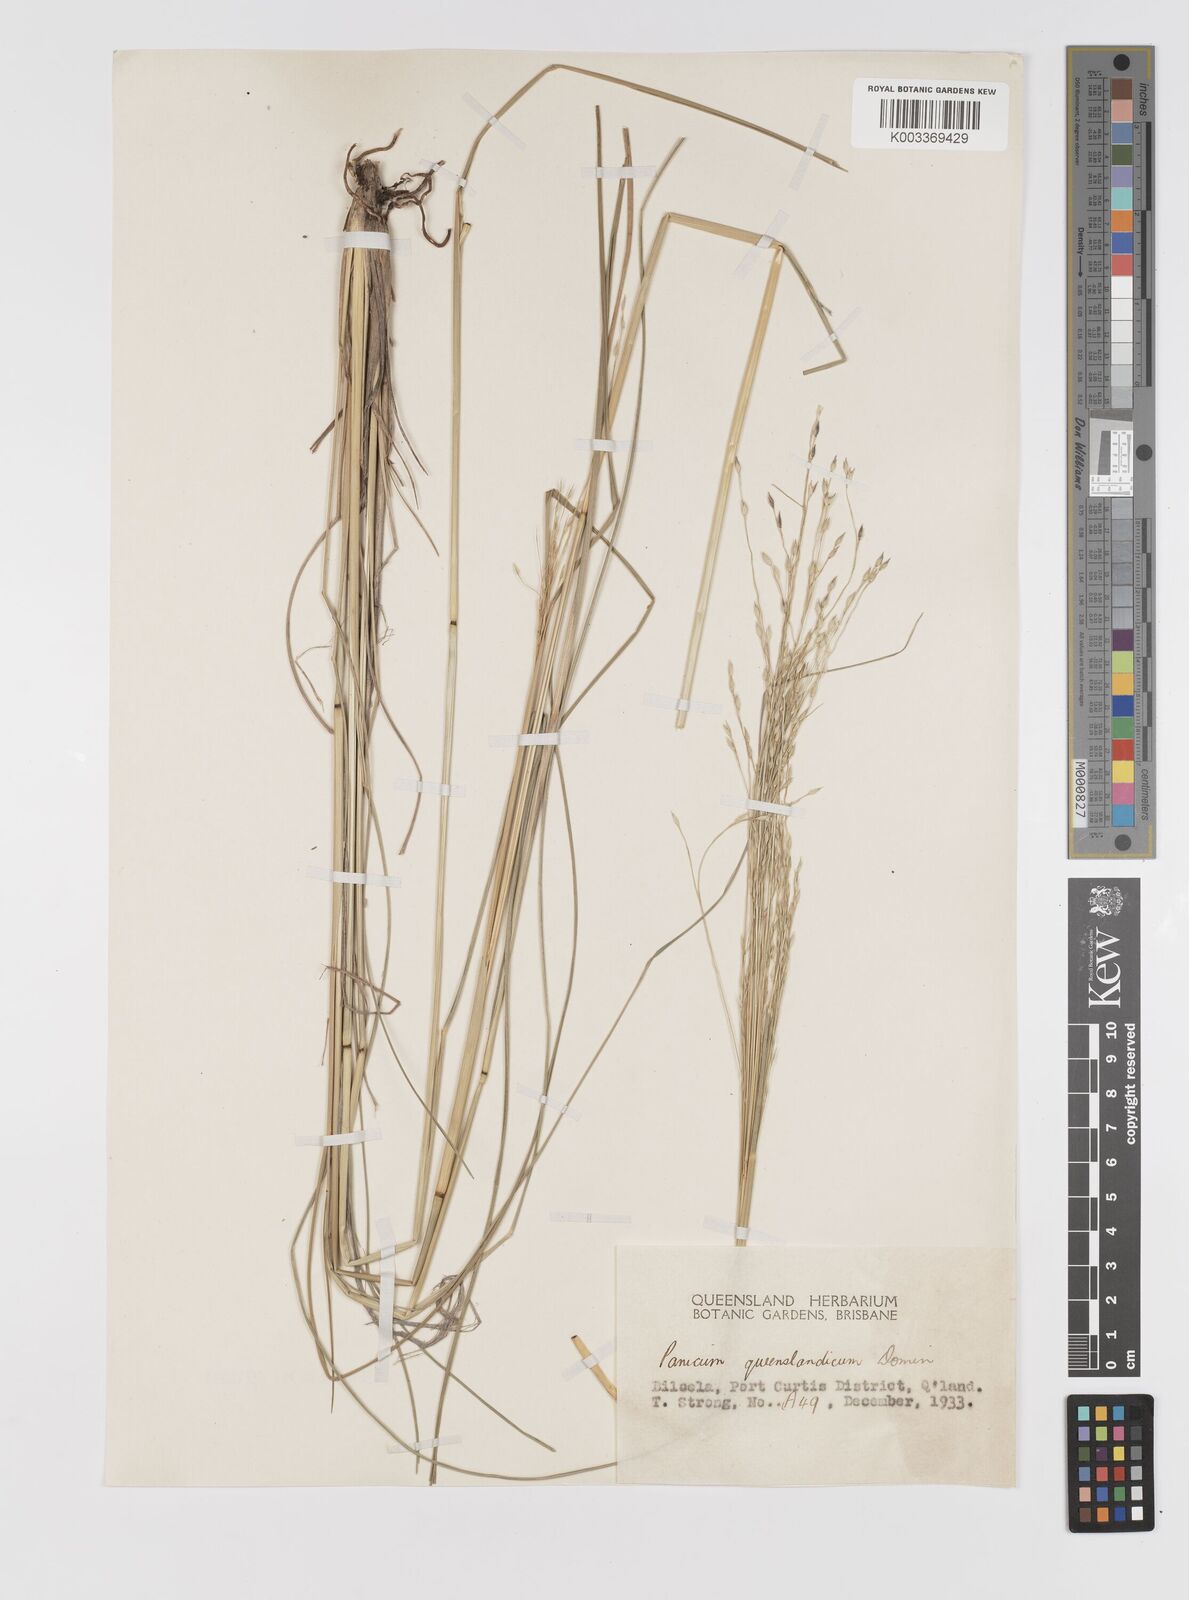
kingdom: Plantae
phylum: Tracheophyta
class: Liliopsida
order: Poales
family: Poaceae
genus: Panicum
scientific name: Panicum queenslandicum
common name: Yabila grass
